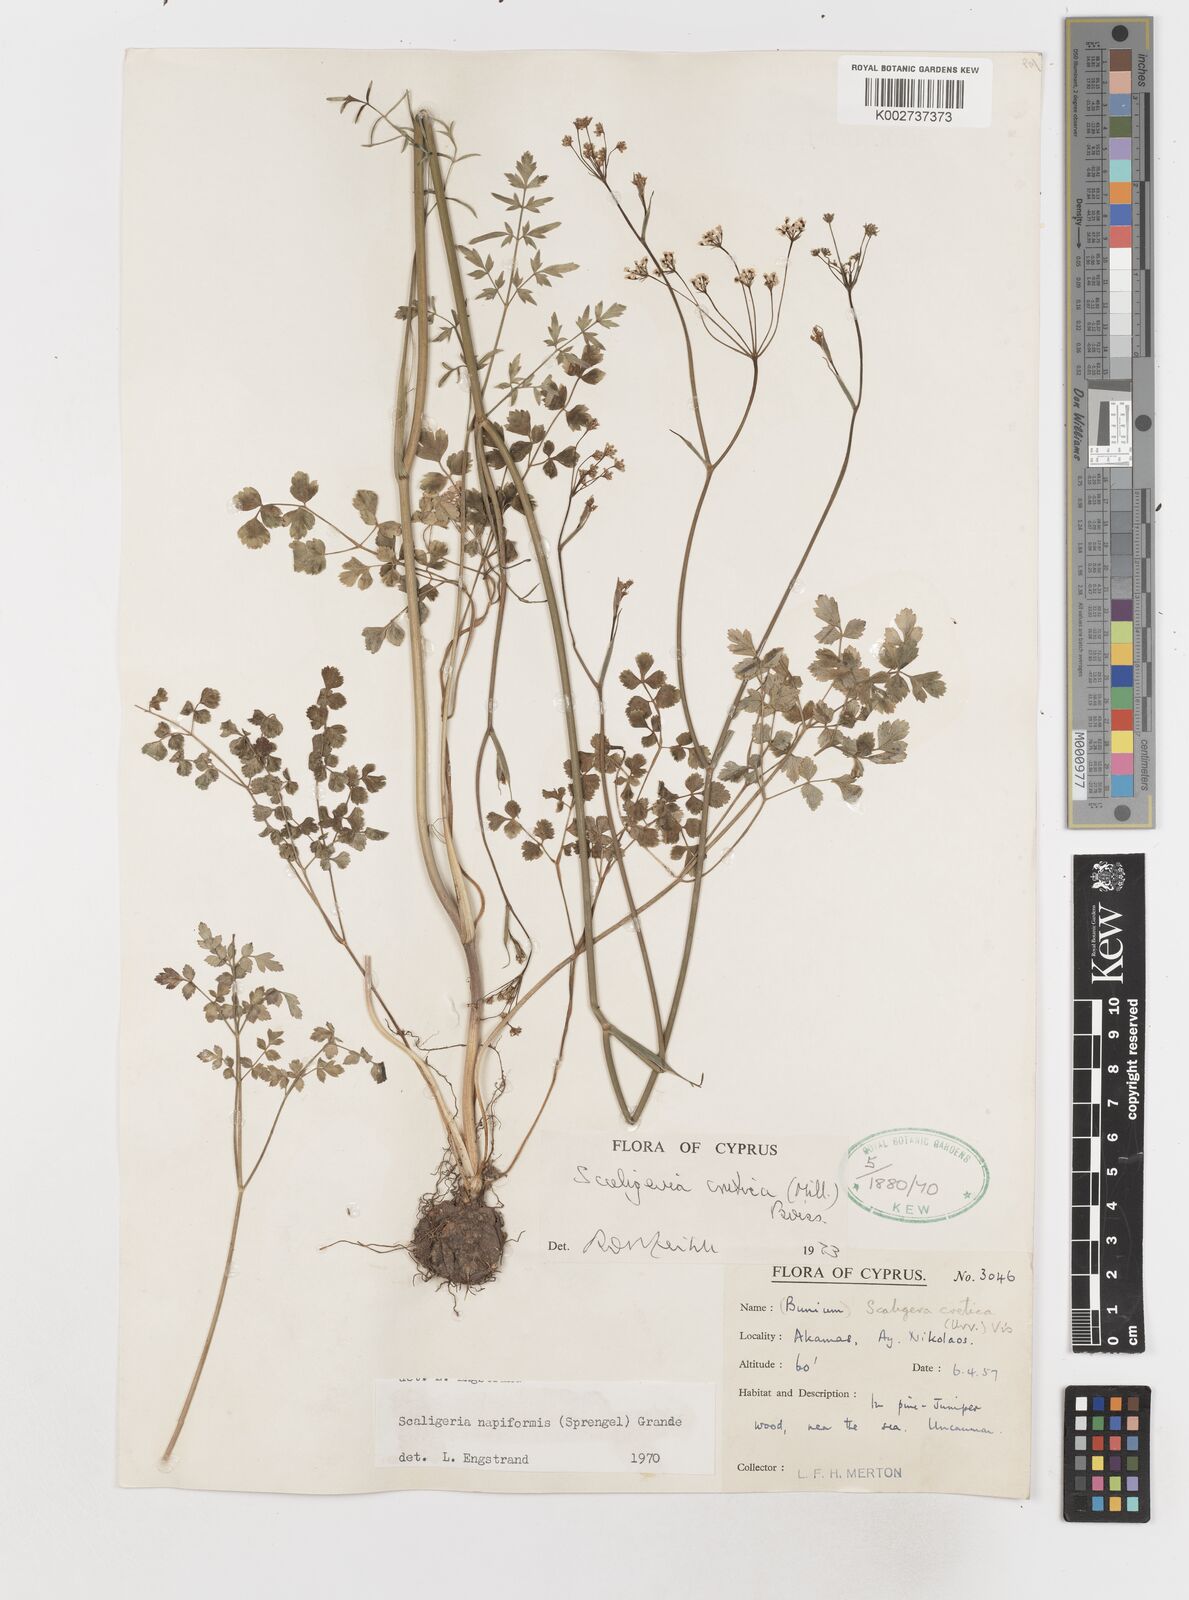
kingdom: Plantae
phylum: Tracheophyta
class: Magnoliopsida
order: Apiales
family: Apiaceae
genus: Scaligeria
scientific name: Scaligeria
